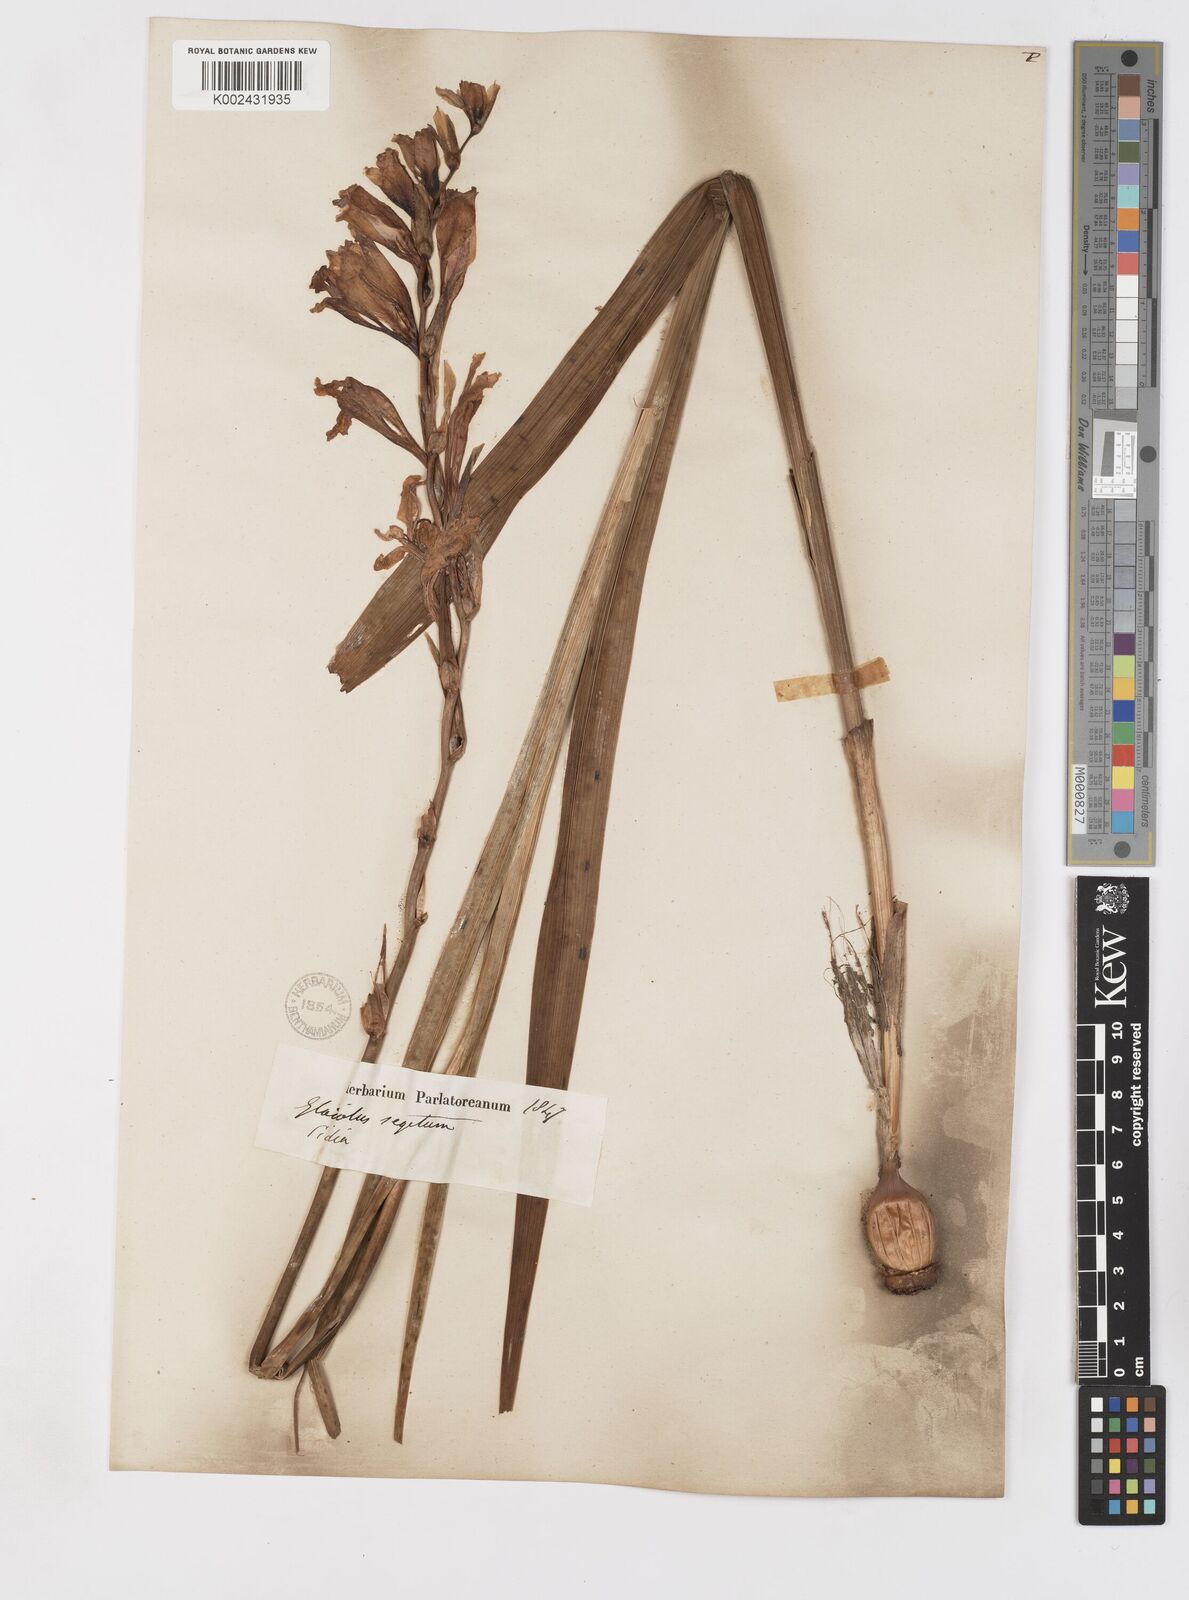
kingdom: Plantae
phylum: Tracheophyta
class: Liliopsida
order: Asparagales
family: Iridaceae
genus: Gladiolus
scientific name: Gladiolus italicus
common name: Field gladiolus
